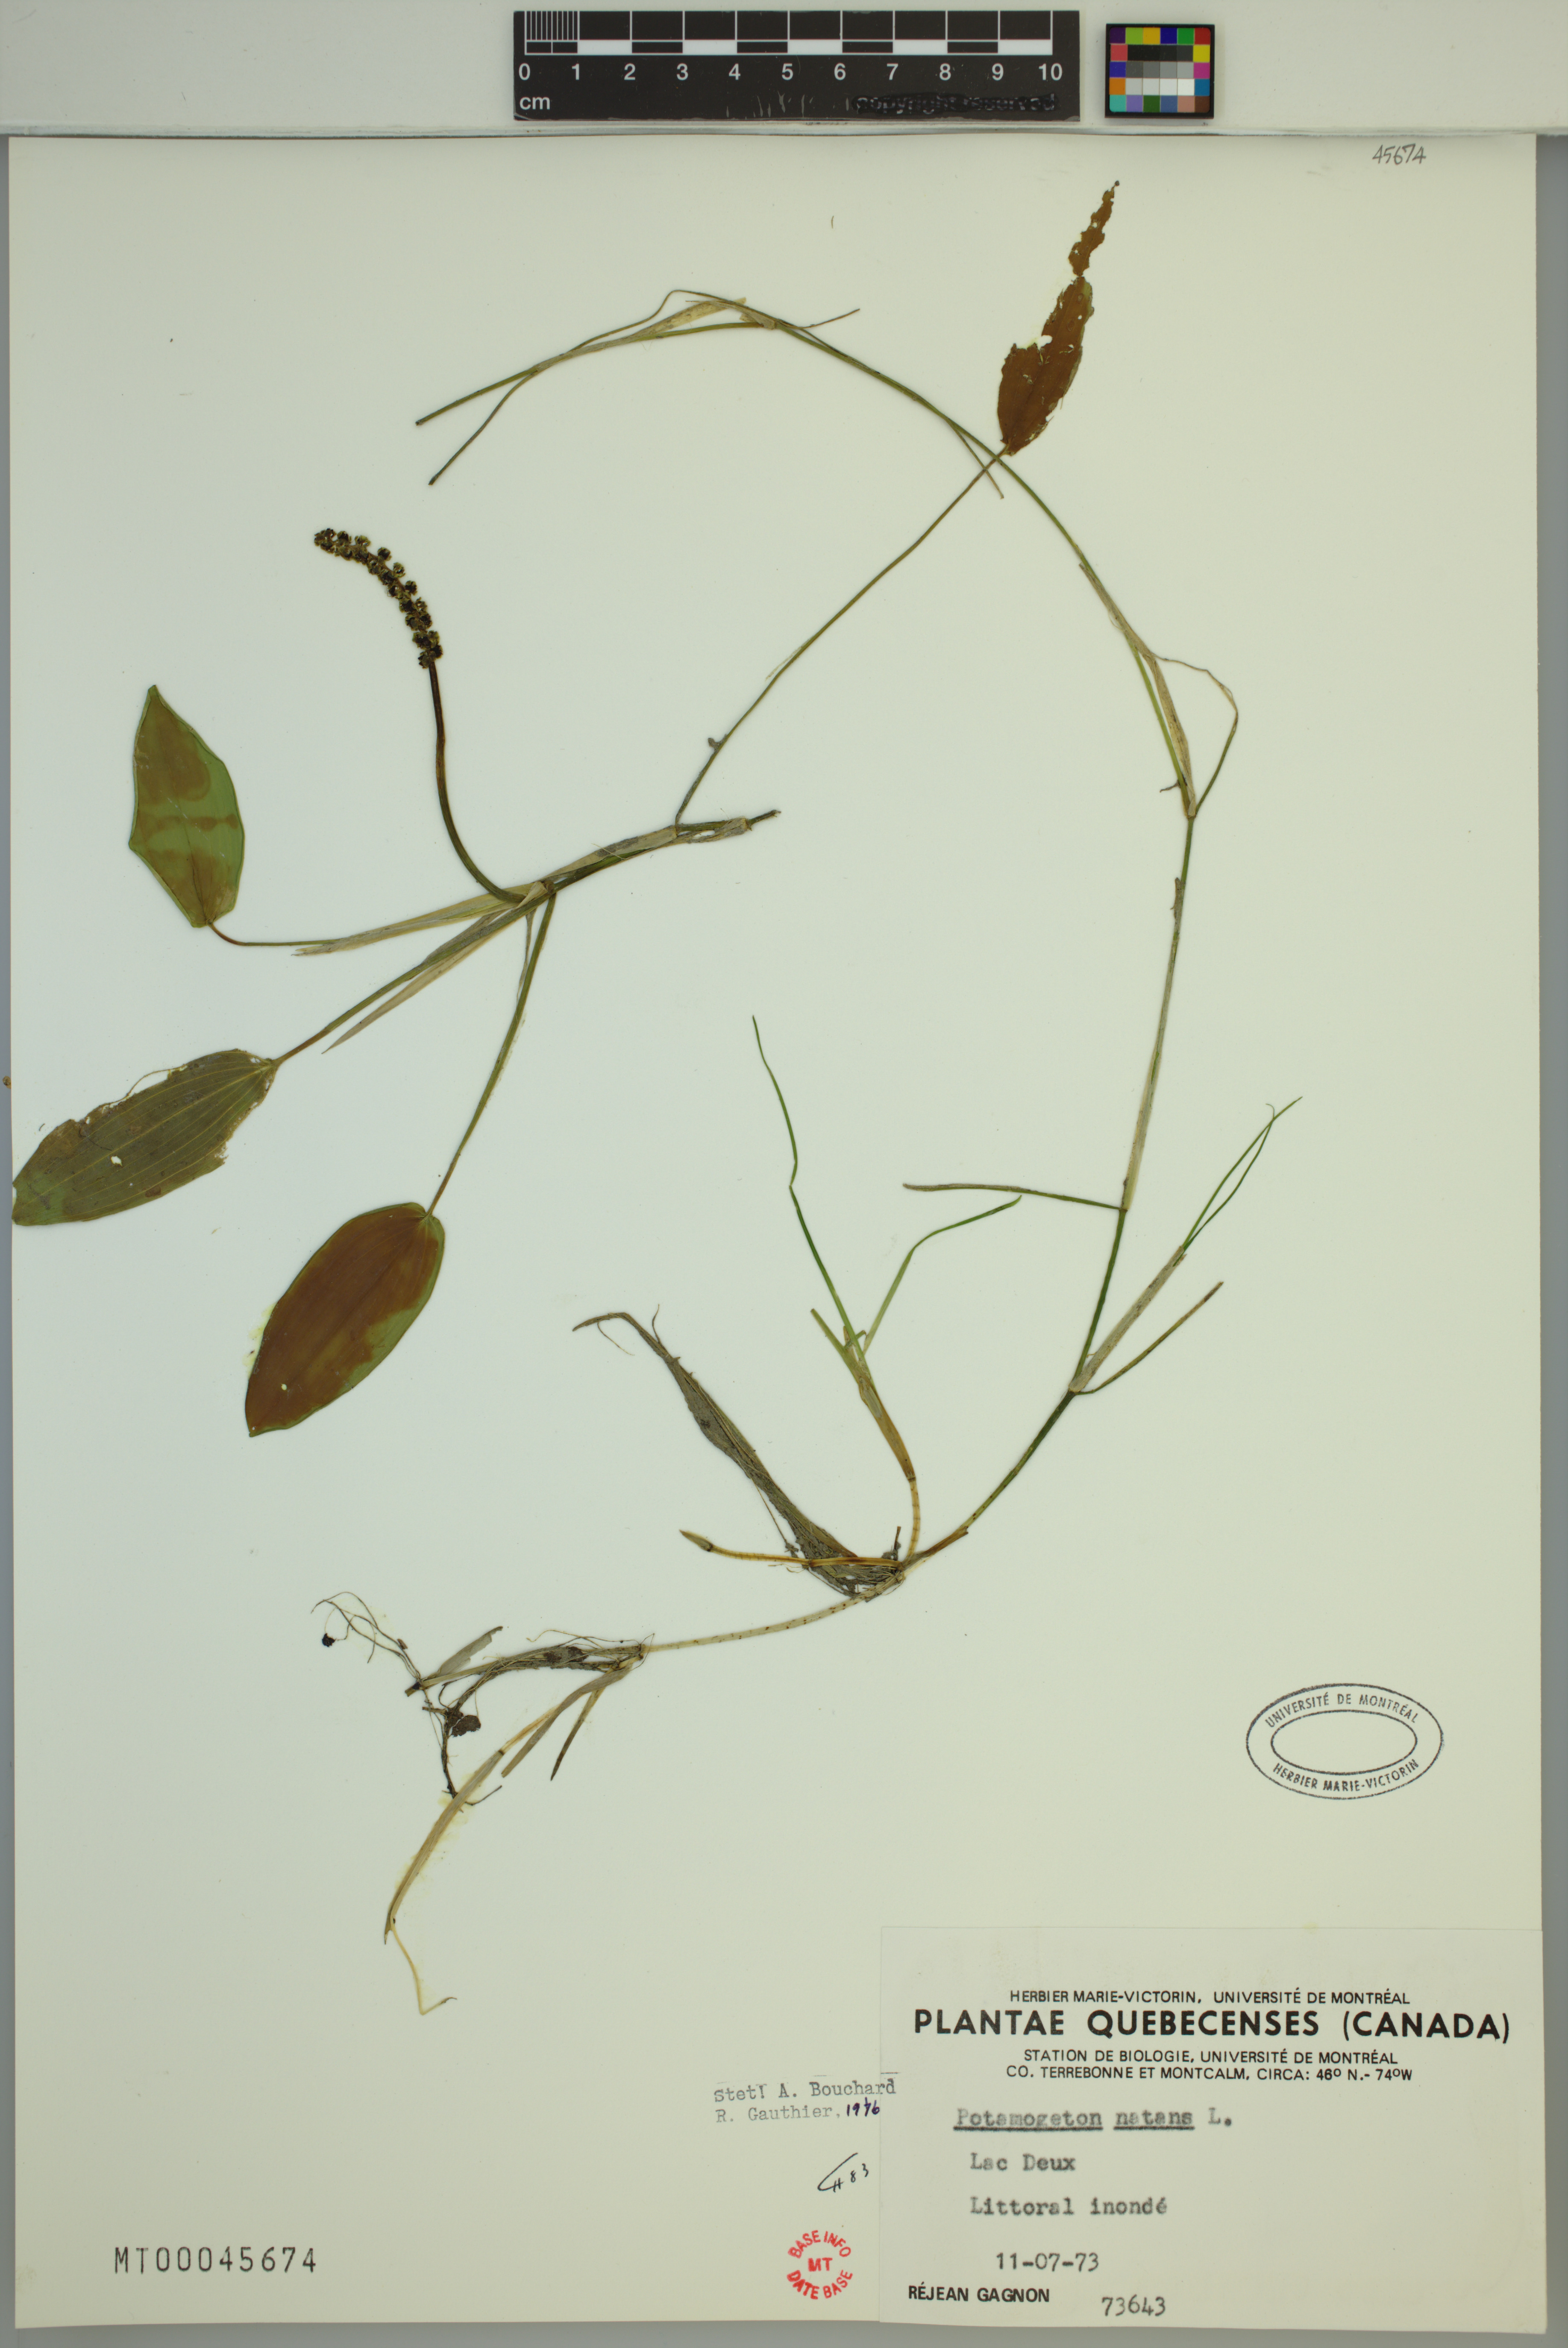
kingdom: Plantae
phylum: Tracheophyta
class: Liliopsida
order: Alismatales
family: Potamogetonaceae
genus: Potamogeton
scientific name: Potamogeton natans
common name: Broad-leaved pondweed
